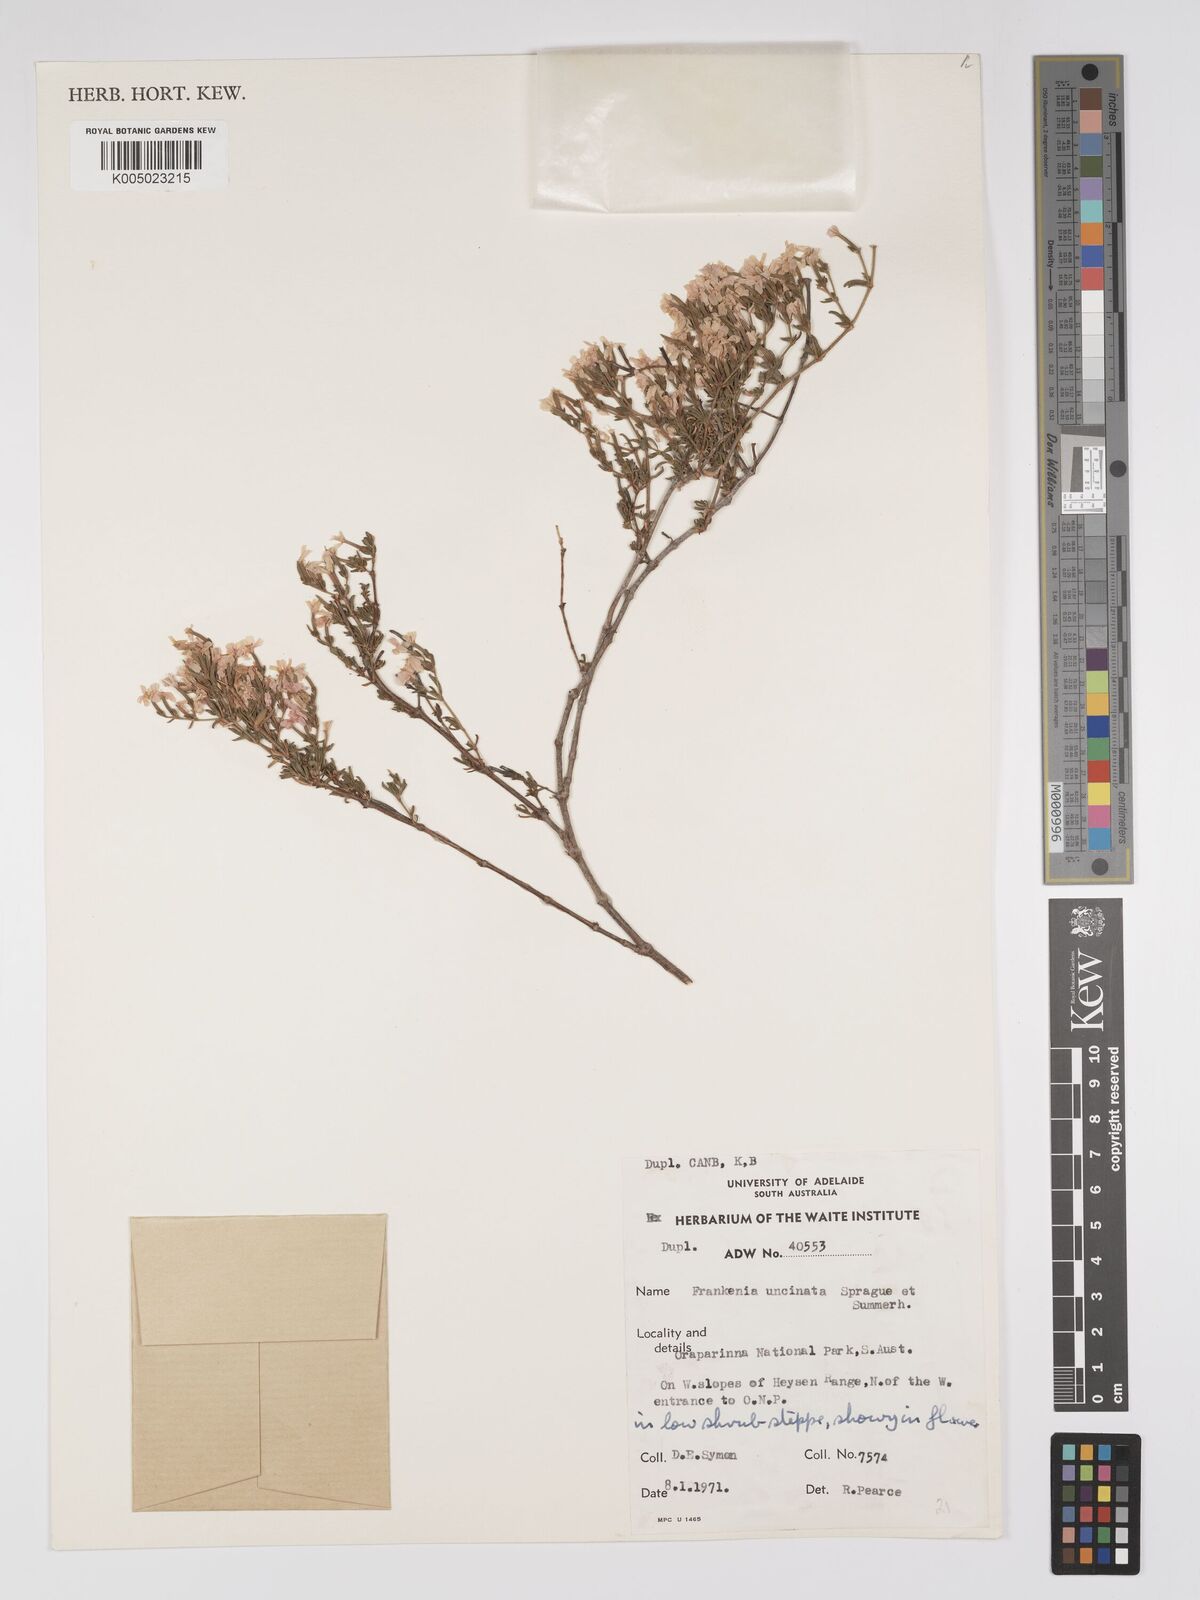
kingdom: Plantae
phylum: Tracheophyta
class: Magnoliopsida
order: Caryophyllales
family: Frankeniaceae
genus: Frankenia
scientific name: Frankenia uncinata
